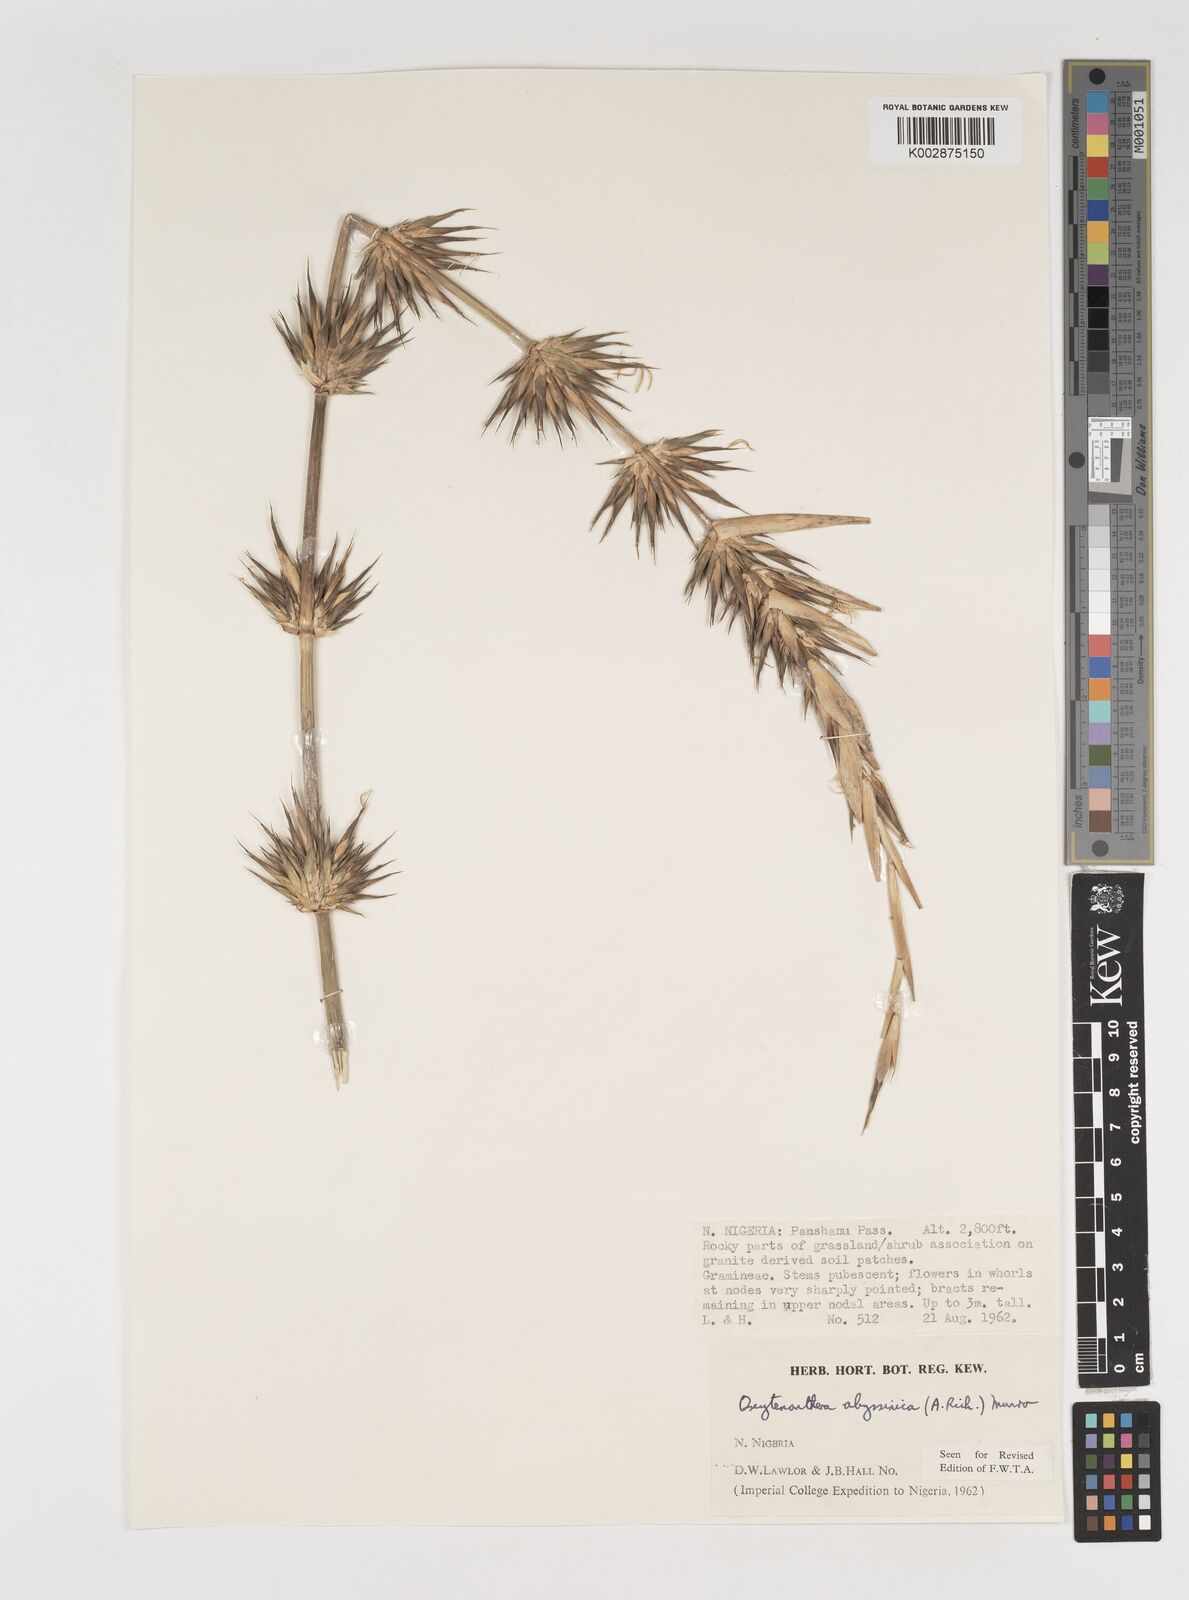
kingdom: Plantae
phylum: Tracheophyta
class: Liliopsida
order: Poales
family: Poaceae
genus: Oxytenanthera
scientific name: Oxytenanthera abyssinica
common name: Wine bamboo
